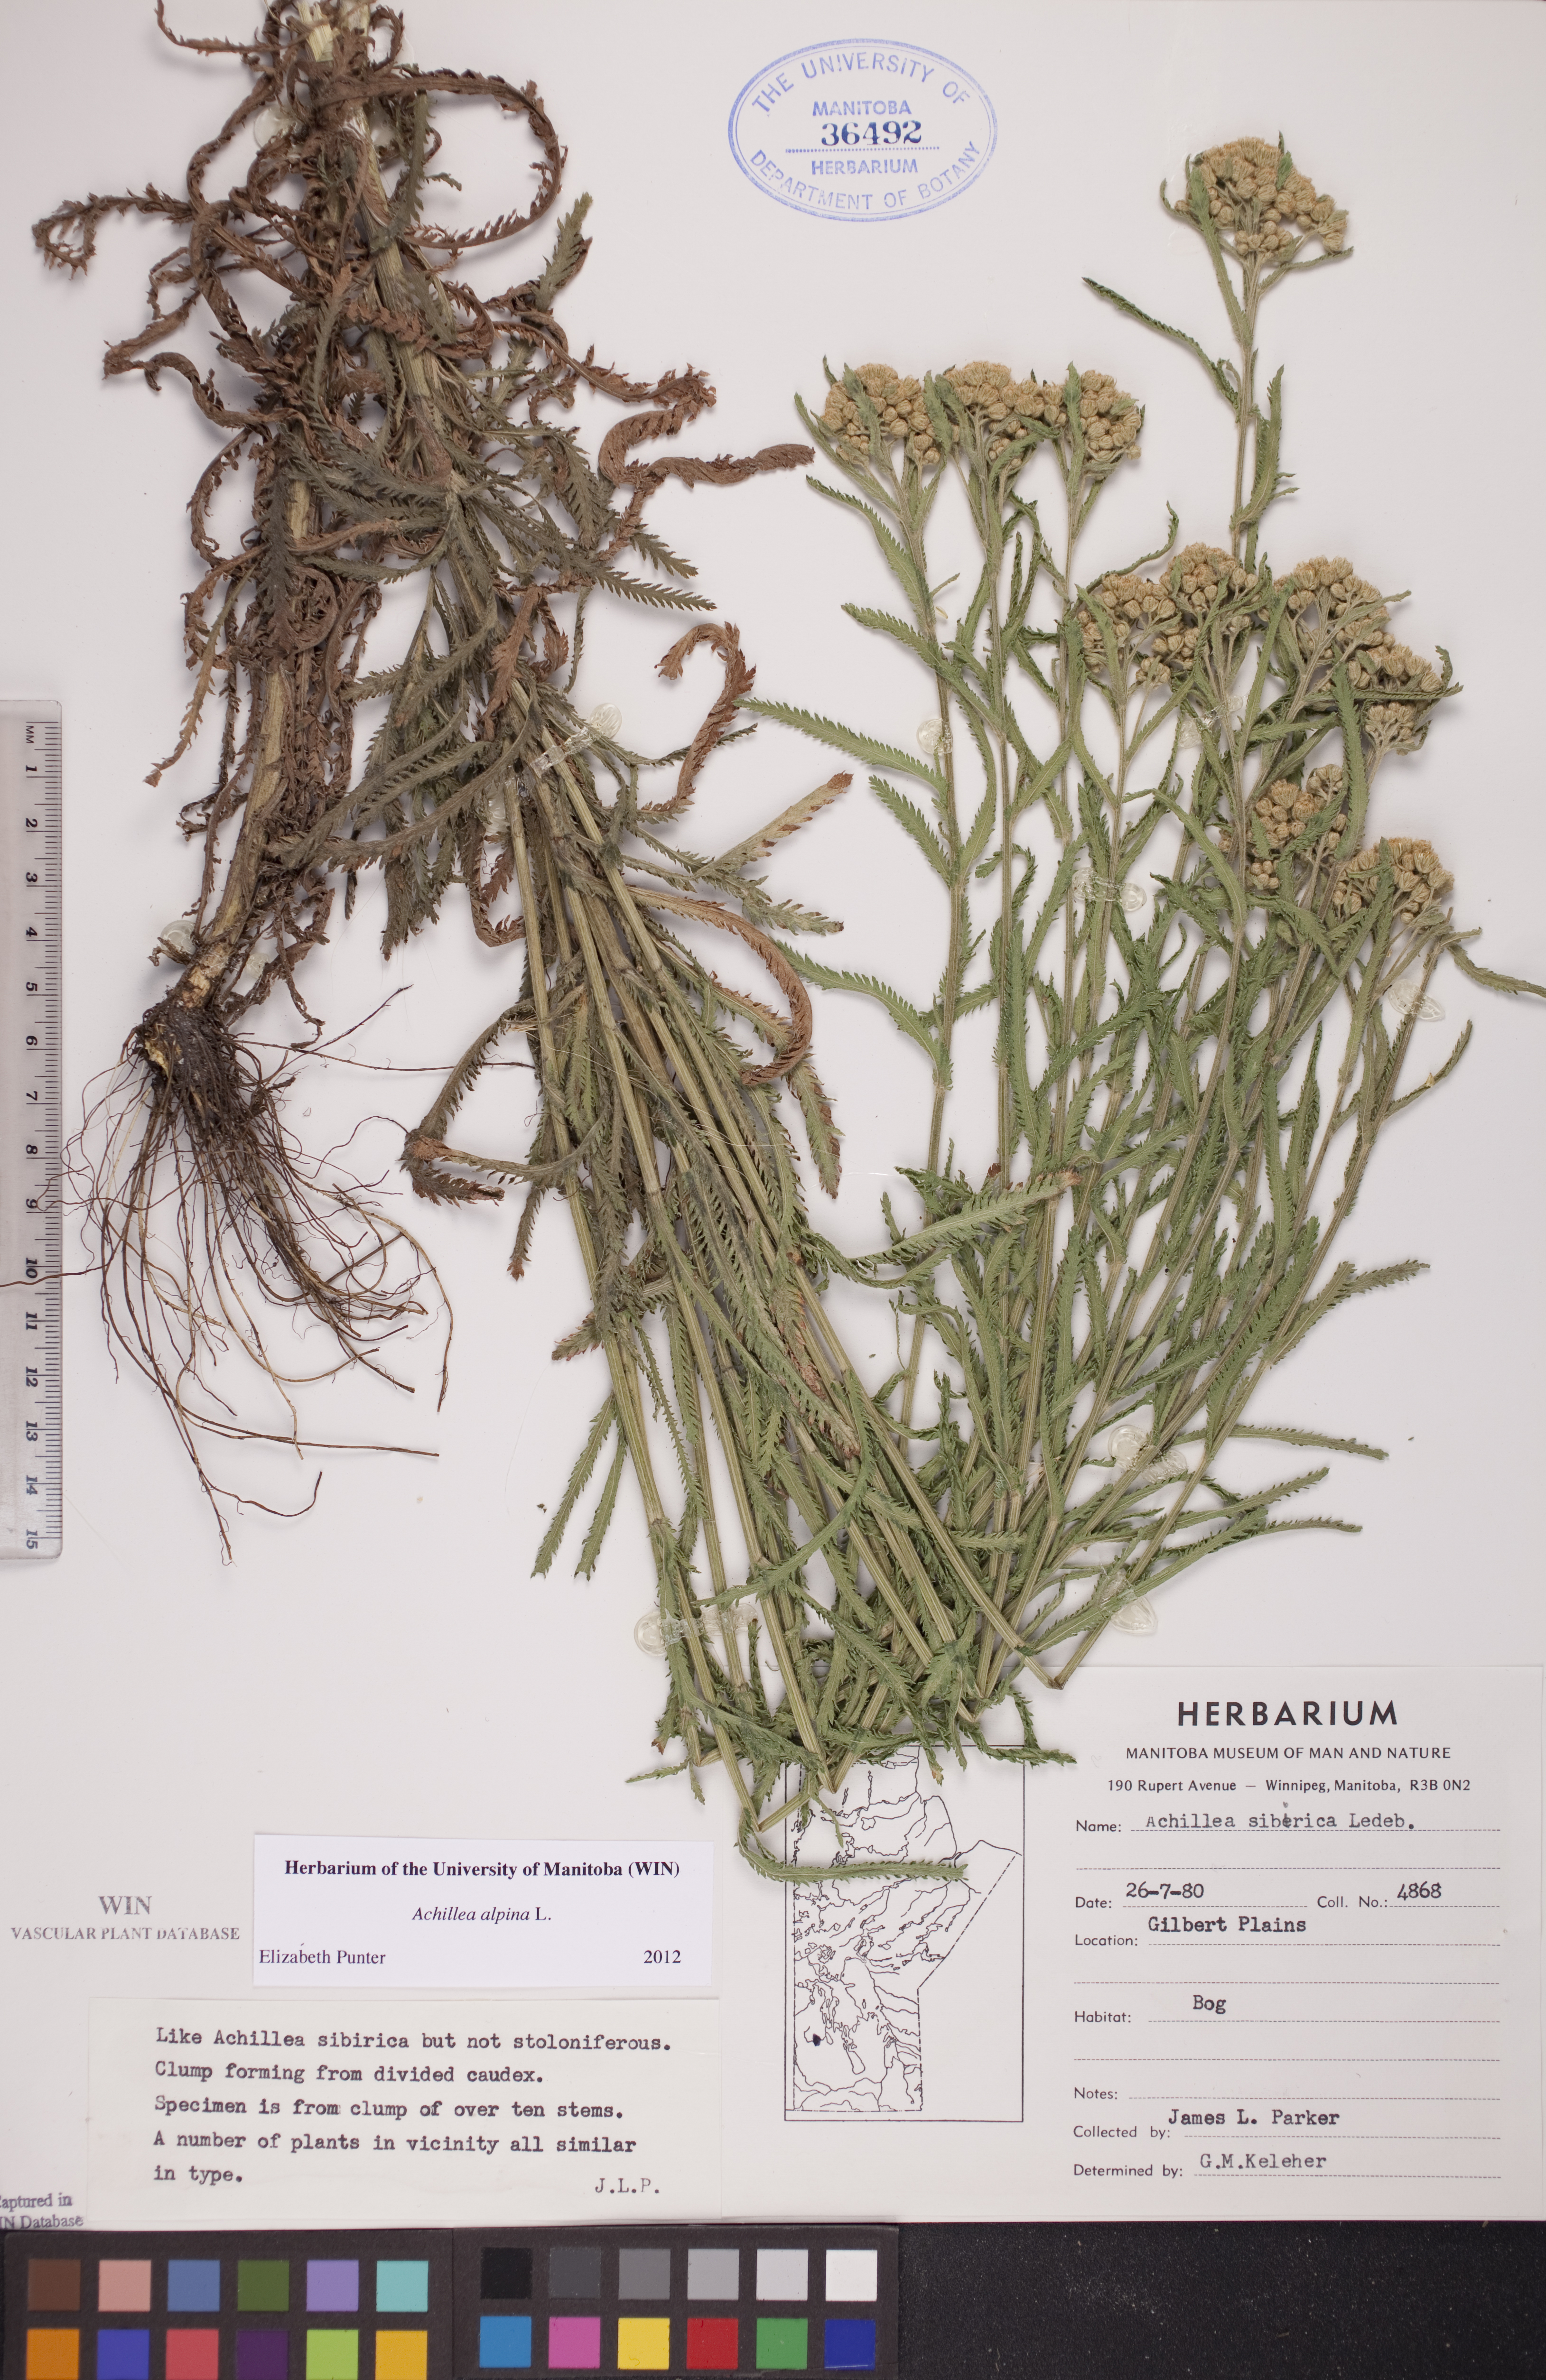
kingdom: Plantae
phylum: Tracheophyta
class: Magnoliopsida
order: Asterales
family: Asteraceae
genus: Achillea
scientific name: Achillea alpina
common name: Siberian yarrow
